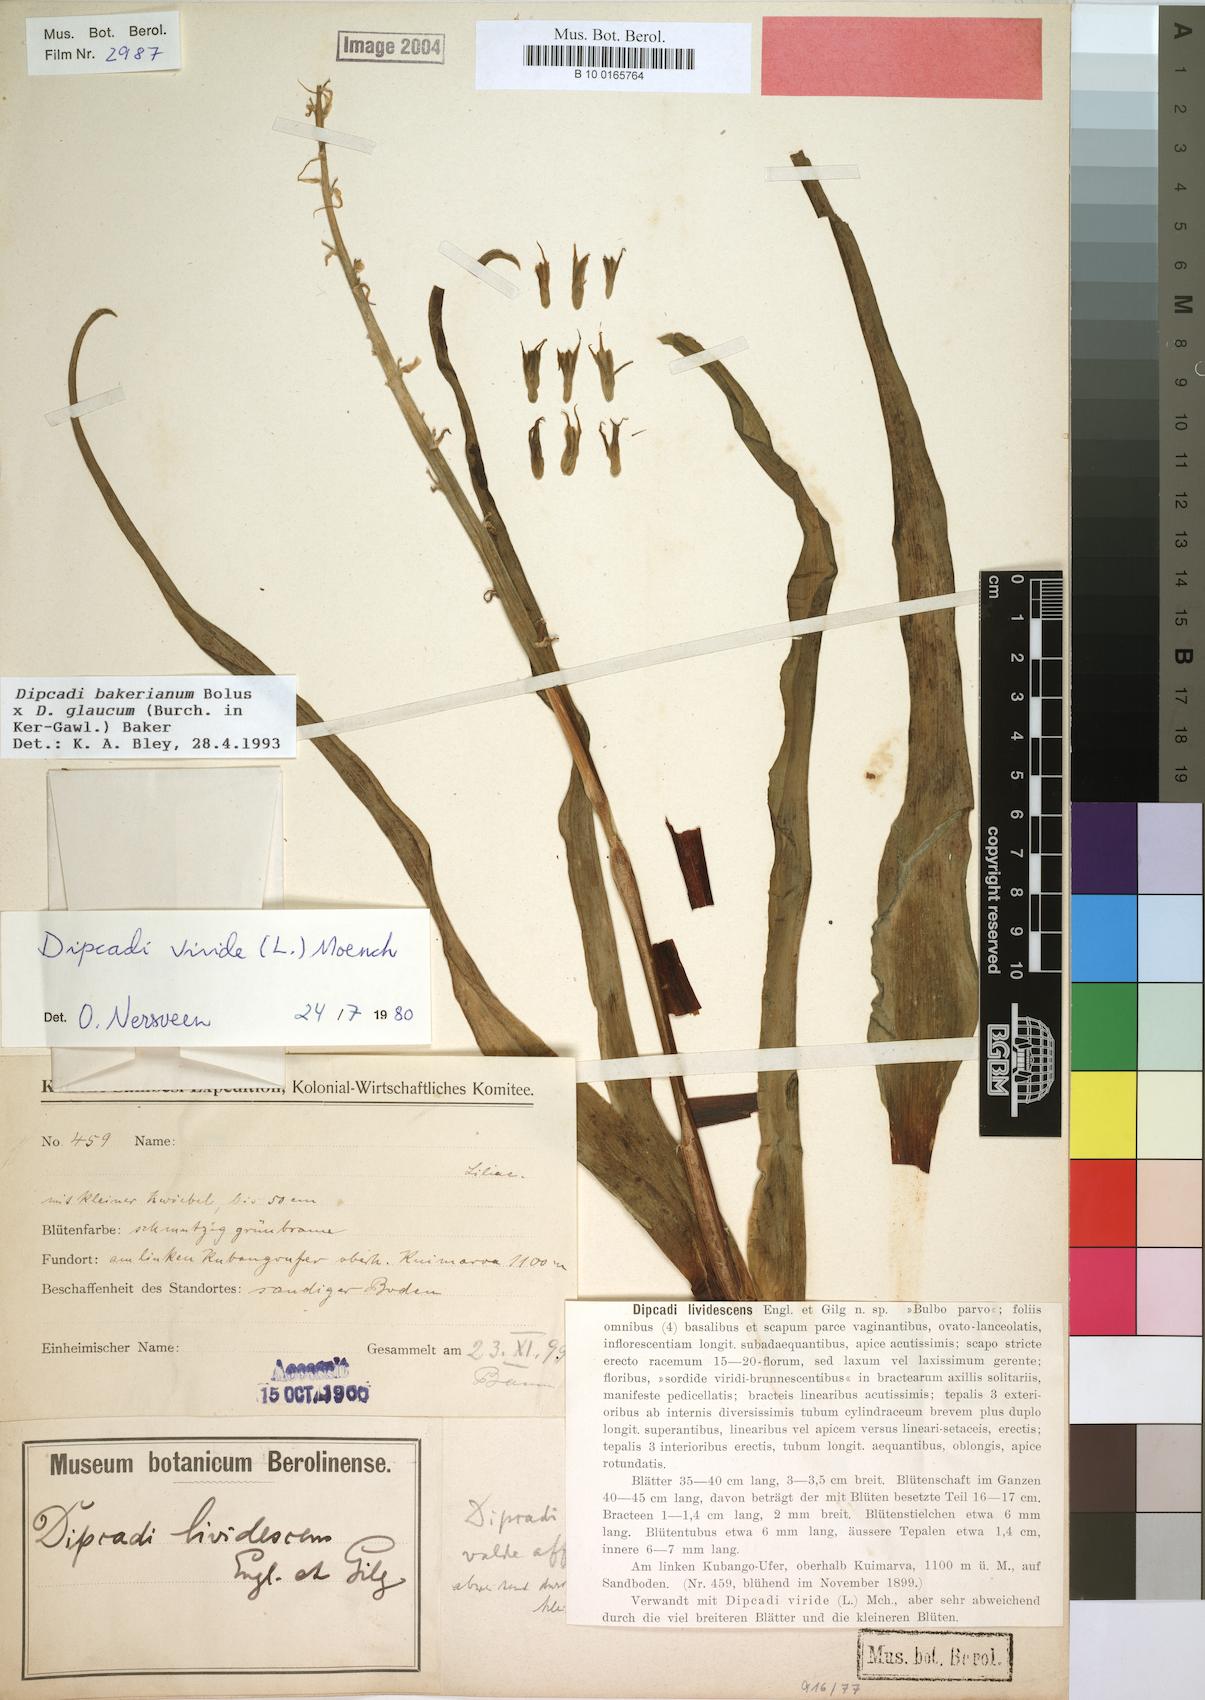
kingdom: Plantae
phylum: Tracheophyta
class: Liliopsida
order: Asparagales
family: Asparagaceae
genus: Dipcadi
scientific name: Dipcadi bakerianum
